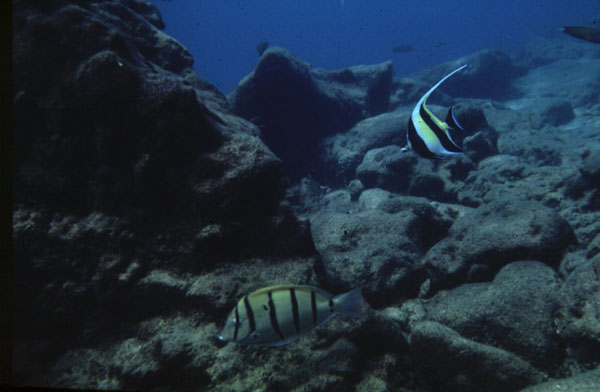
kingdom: Animalia
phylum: Chordata
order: Perciformes
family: Acanthuridae
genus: Acanthurus
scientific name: Acanthurus triostegus
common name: Convict surgeonfish
